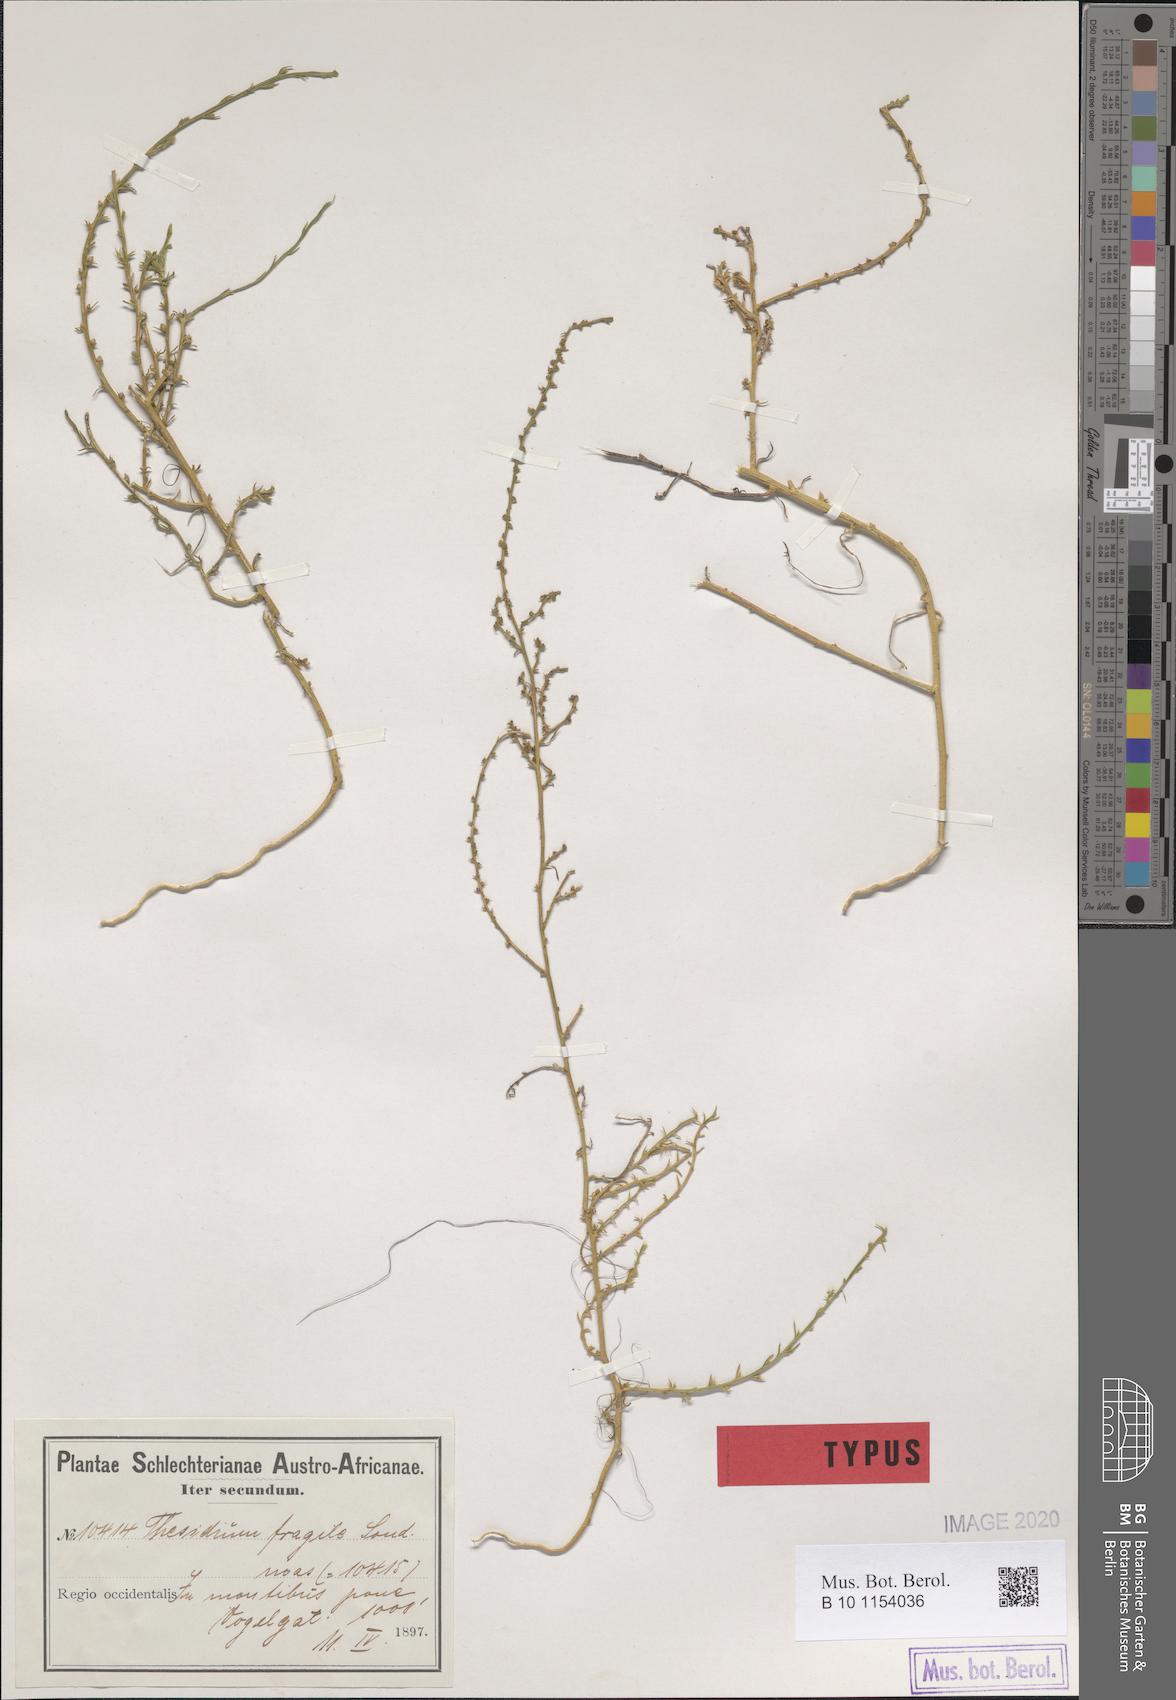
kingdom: Plantae
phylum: Tracheophyta
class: Magnoliopsida
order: Santalales
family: Thesiaceae
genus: Thesium
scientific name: Thesium fruticulosum
